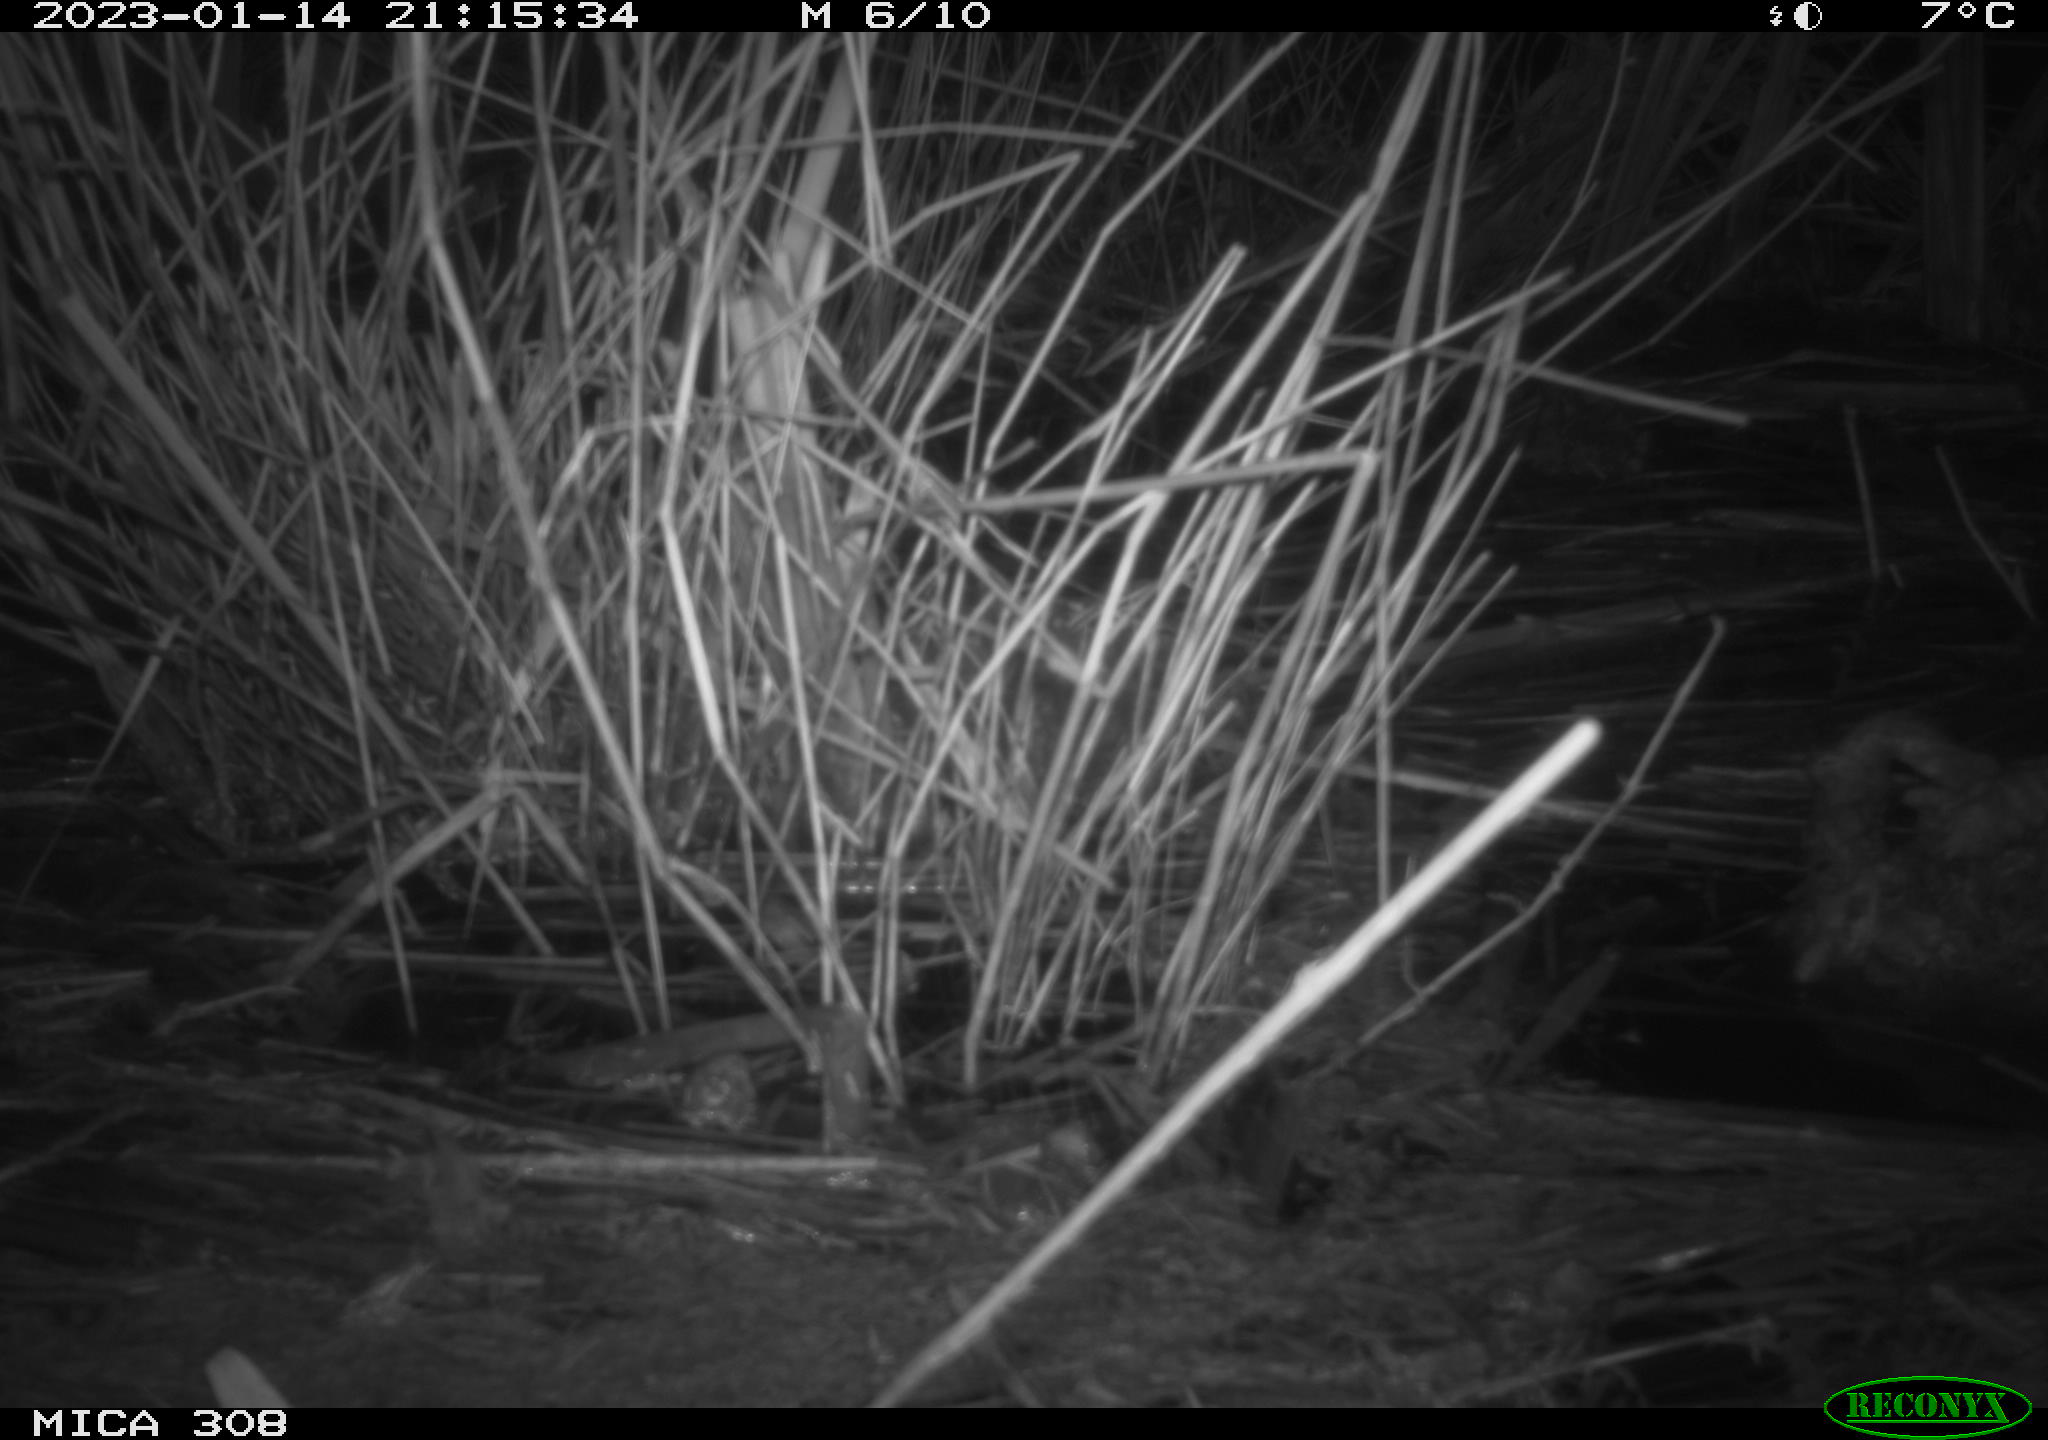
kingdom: Animalia
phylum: Chordata
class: Mammalia
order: Rodentia
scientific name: Rodentia
